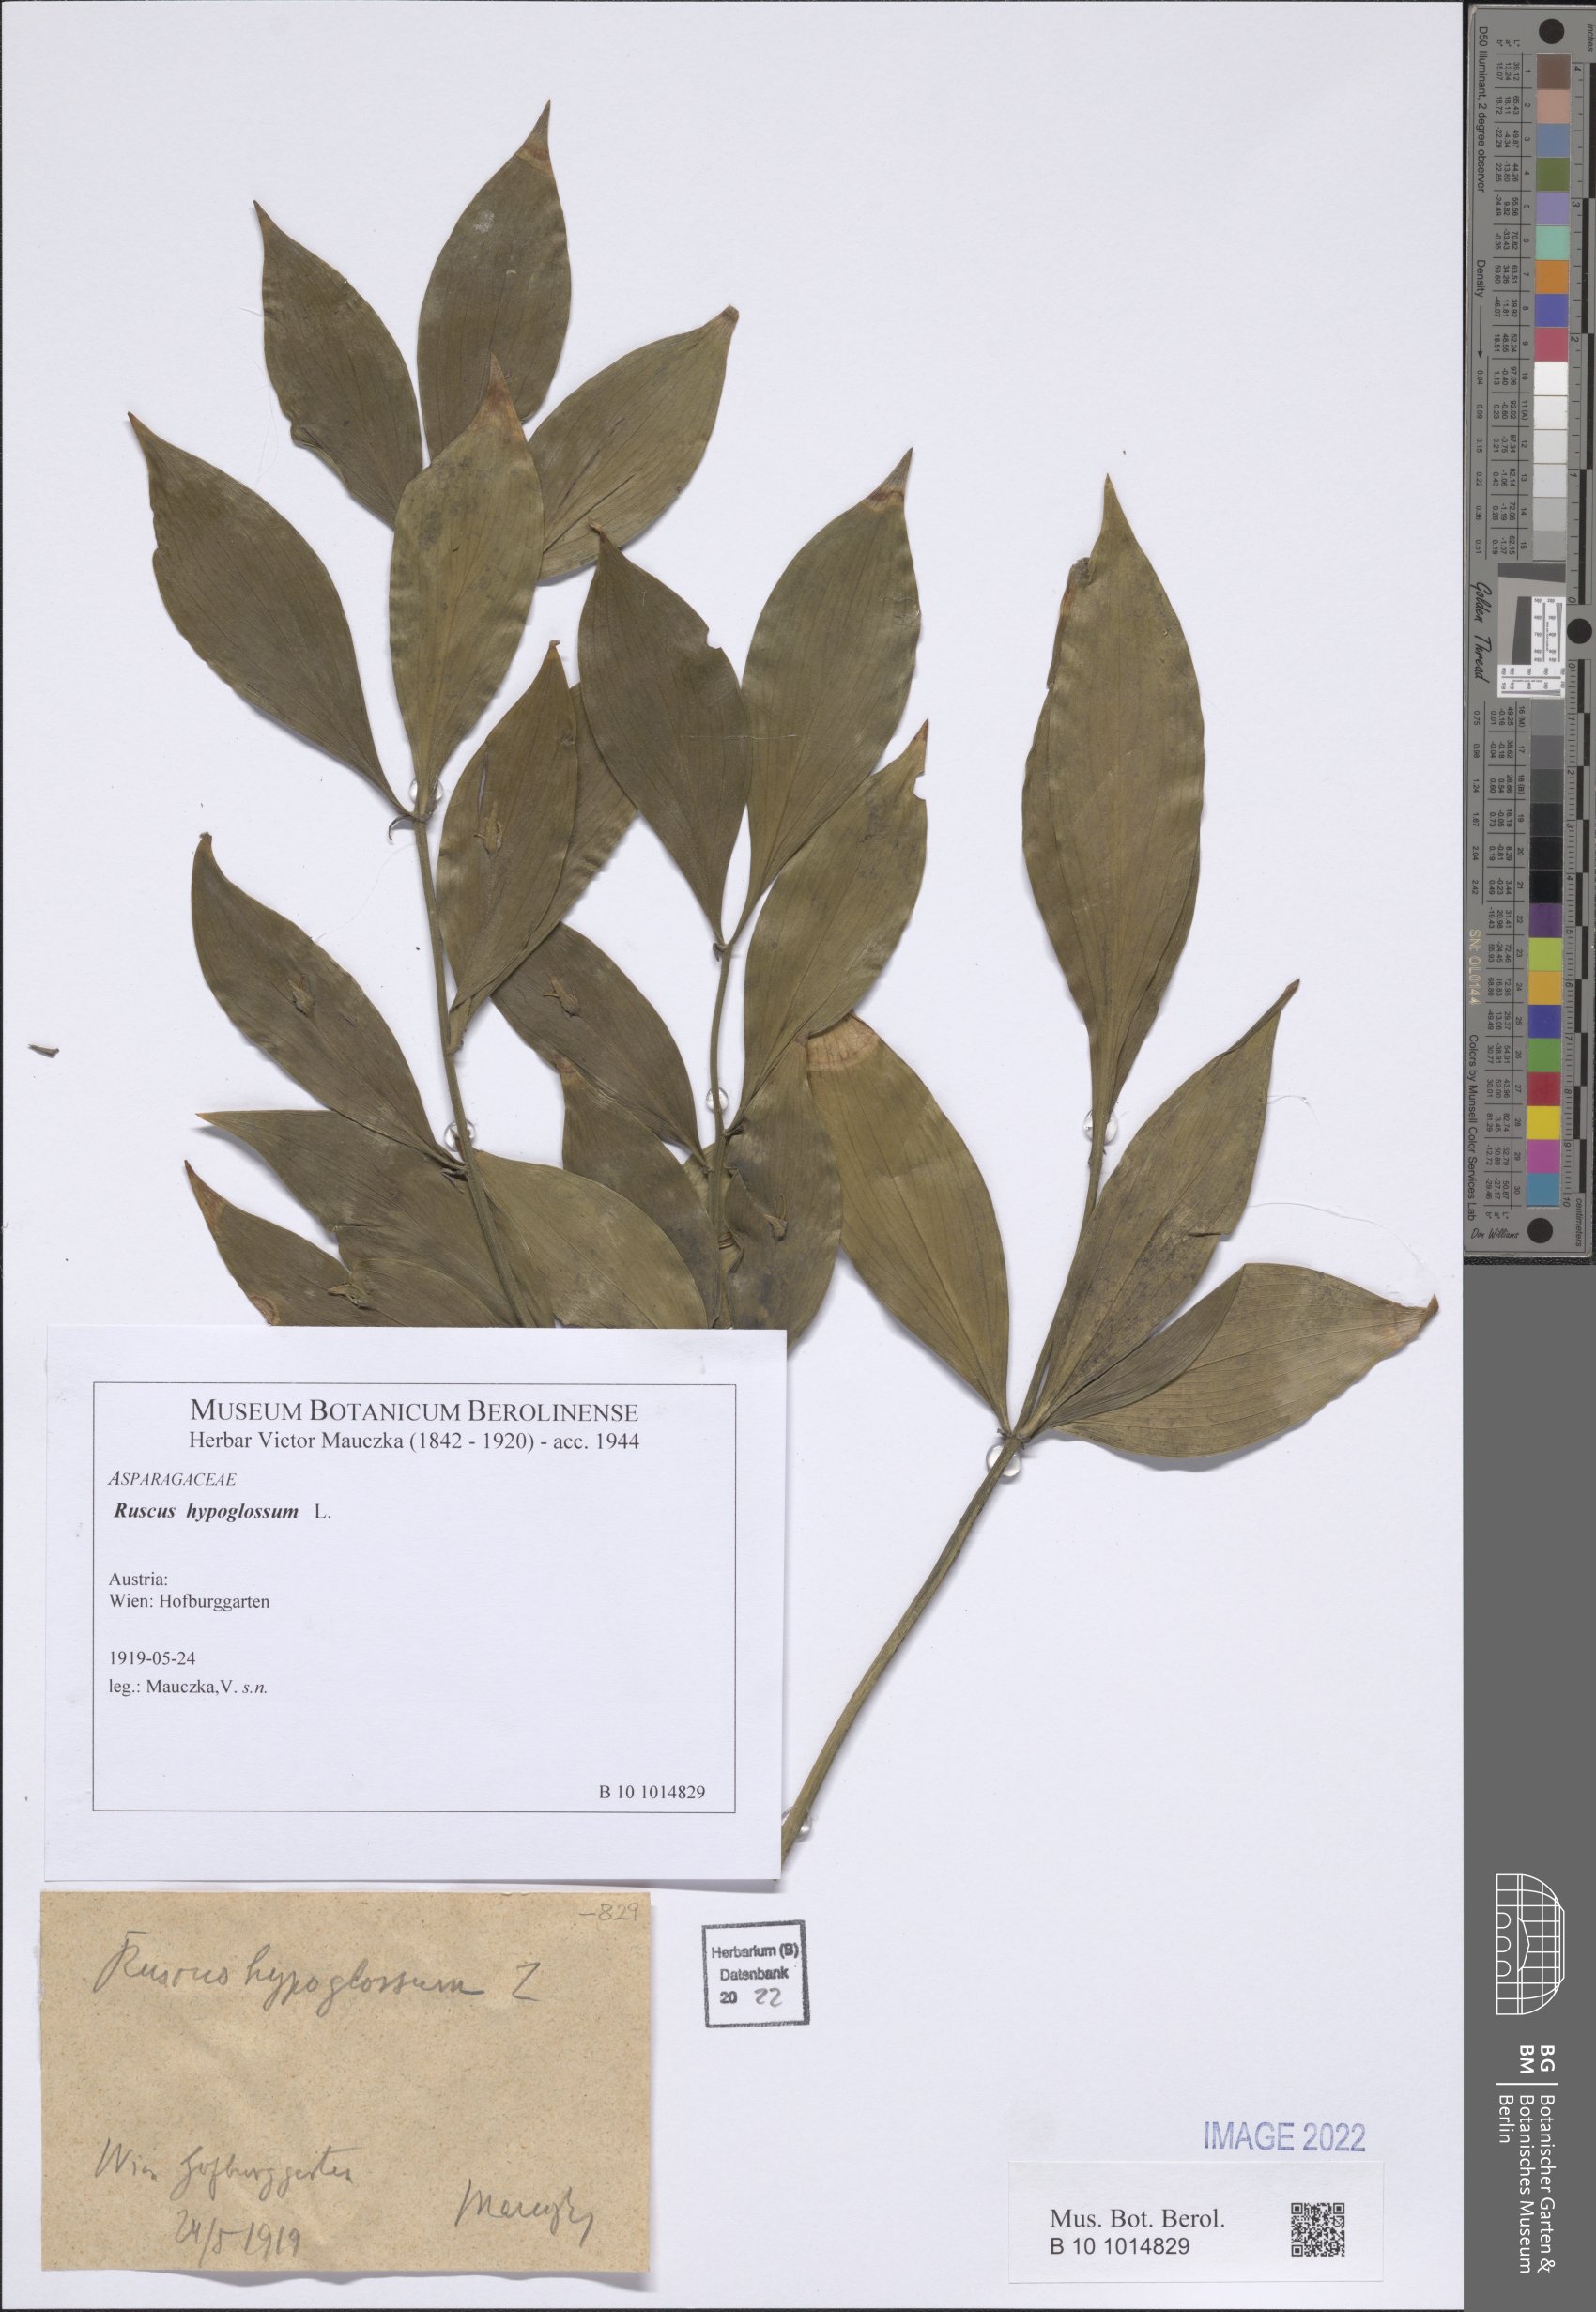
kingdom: Plantae
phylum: Tracheophyta
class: Liliopsida
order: Asparagales
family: Asparagaceae
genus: Ruscus
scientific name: Ruscus hypoglossum
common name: Spineless butcher's-broom
